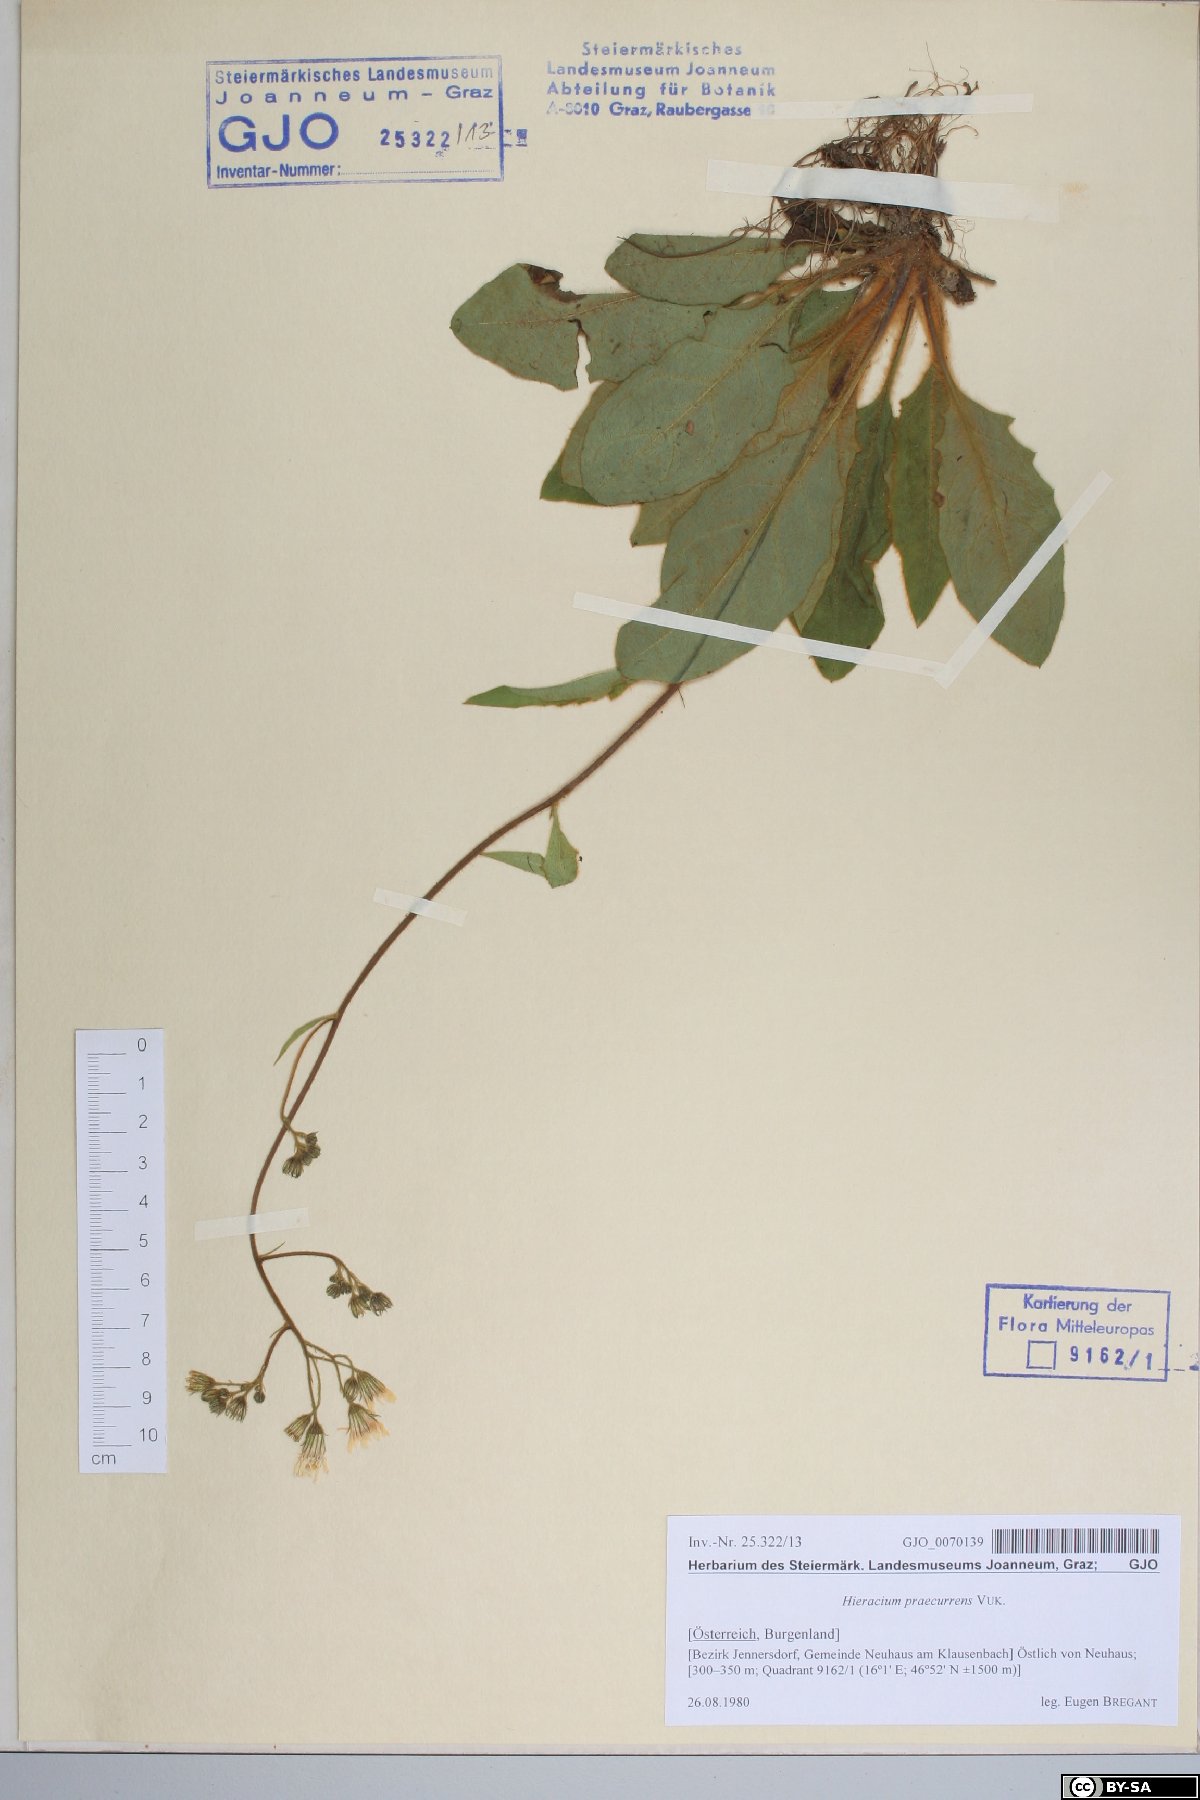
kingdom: Plantae
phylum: Tracheophyta
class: Magnoliopsida
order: Asterales
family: Asteraceae
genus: Hieracium
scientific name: Hieracium rotundatum
